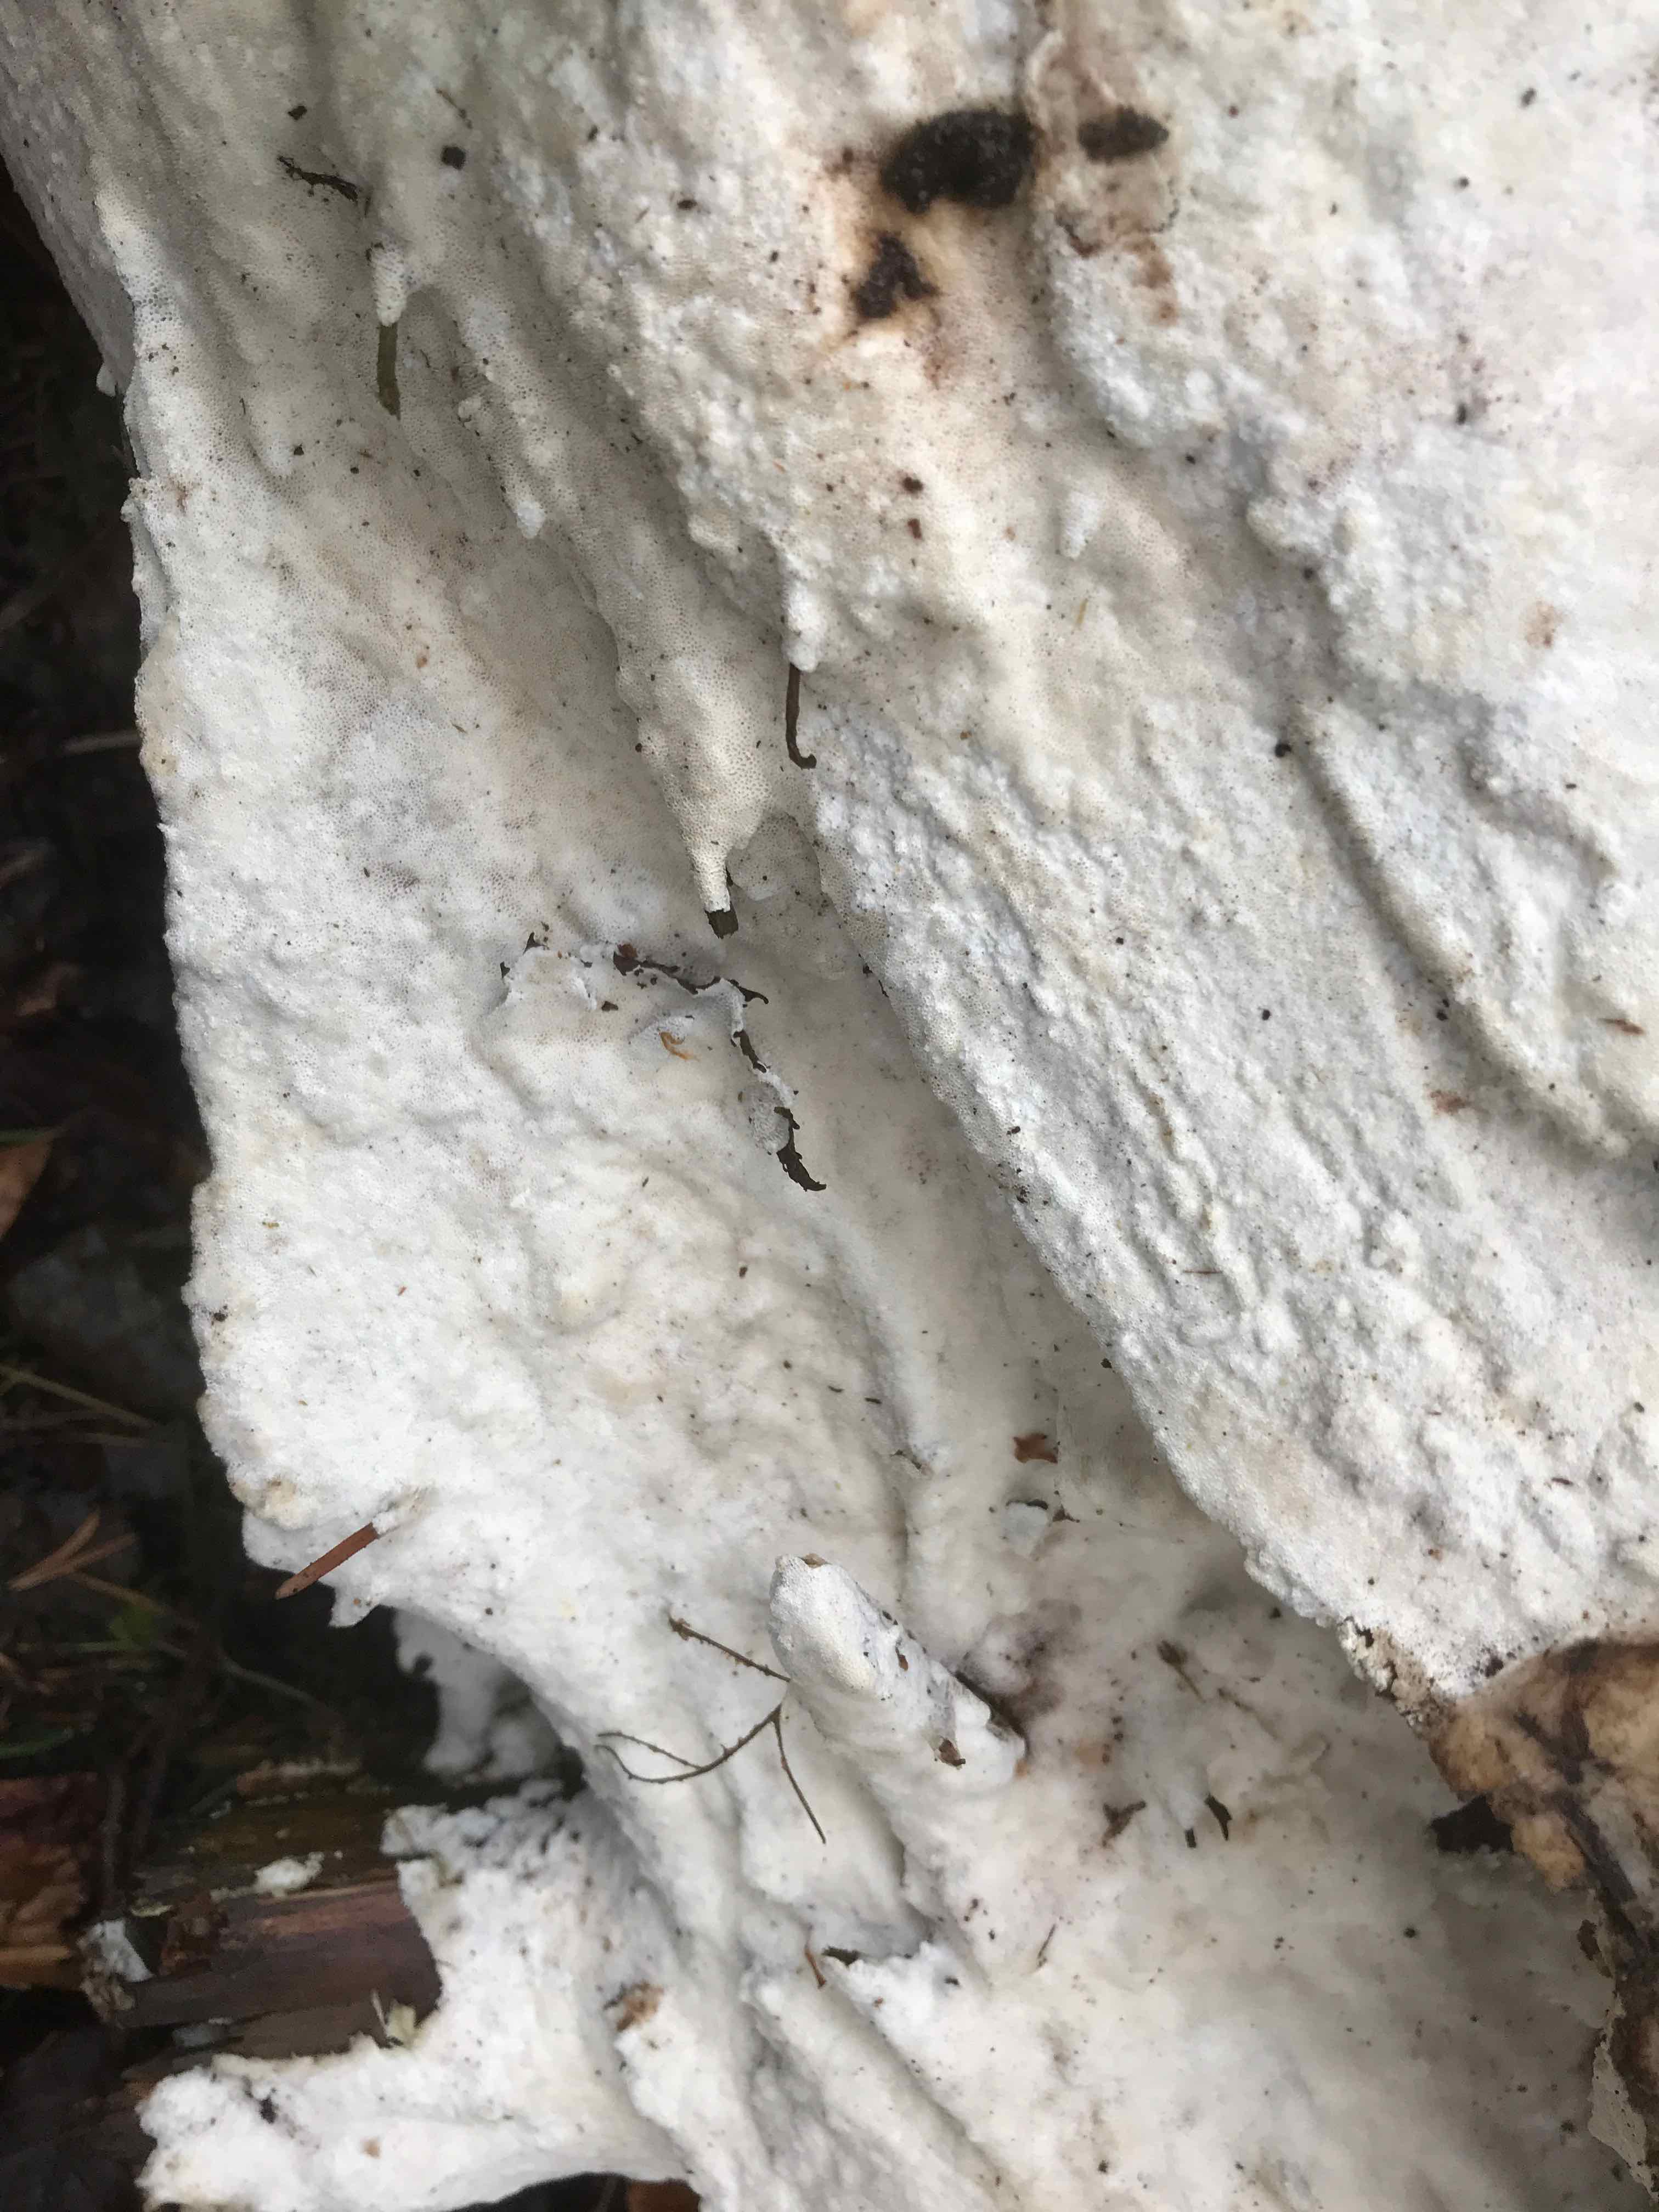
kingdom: Fungi
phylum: Basidiomycota
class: Agaricomycetes
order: Polyporales
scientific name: Polyporales
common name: poresvampordenen
